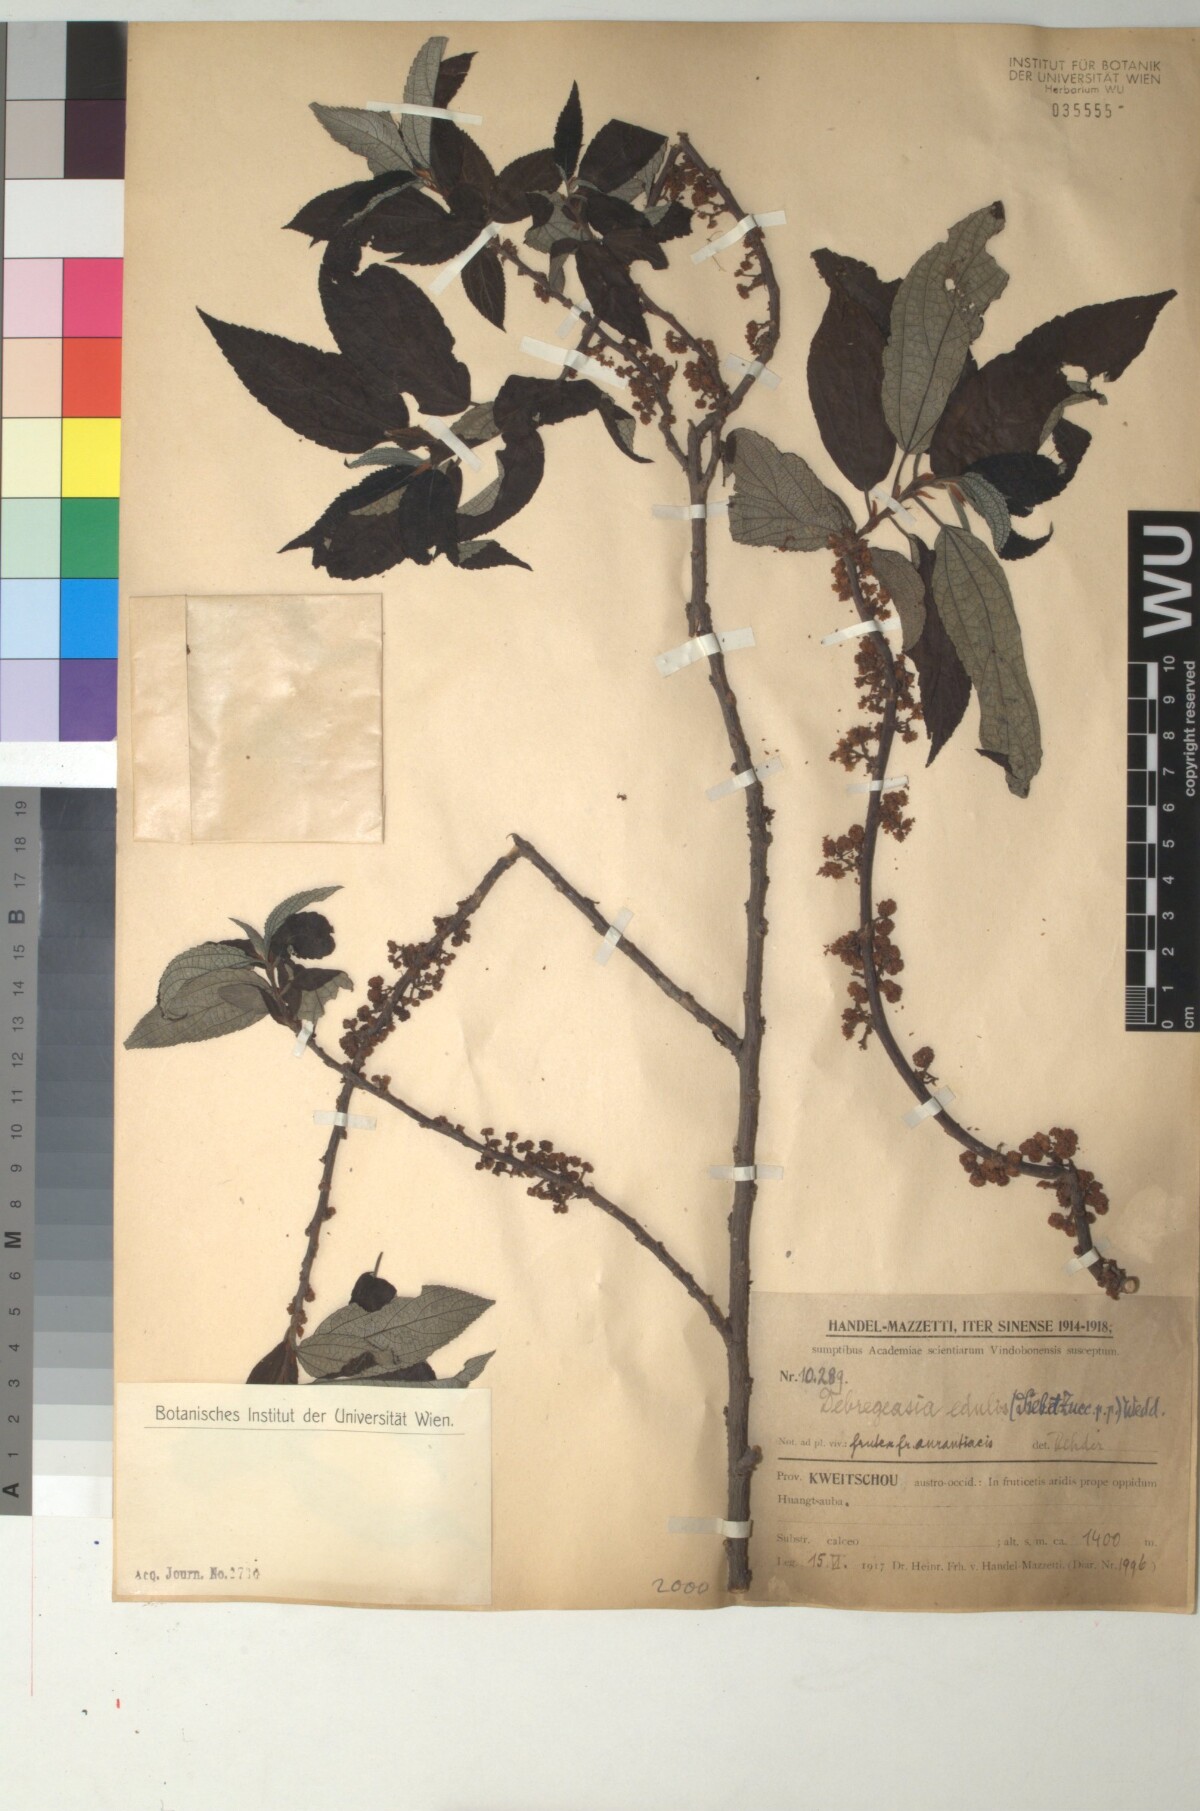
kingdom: Plantae
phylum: Tracheophyta
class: Magnoliopsida
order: Rosales
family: Urticaceae
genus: Debregeasia
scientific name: Debregeasia edulis
